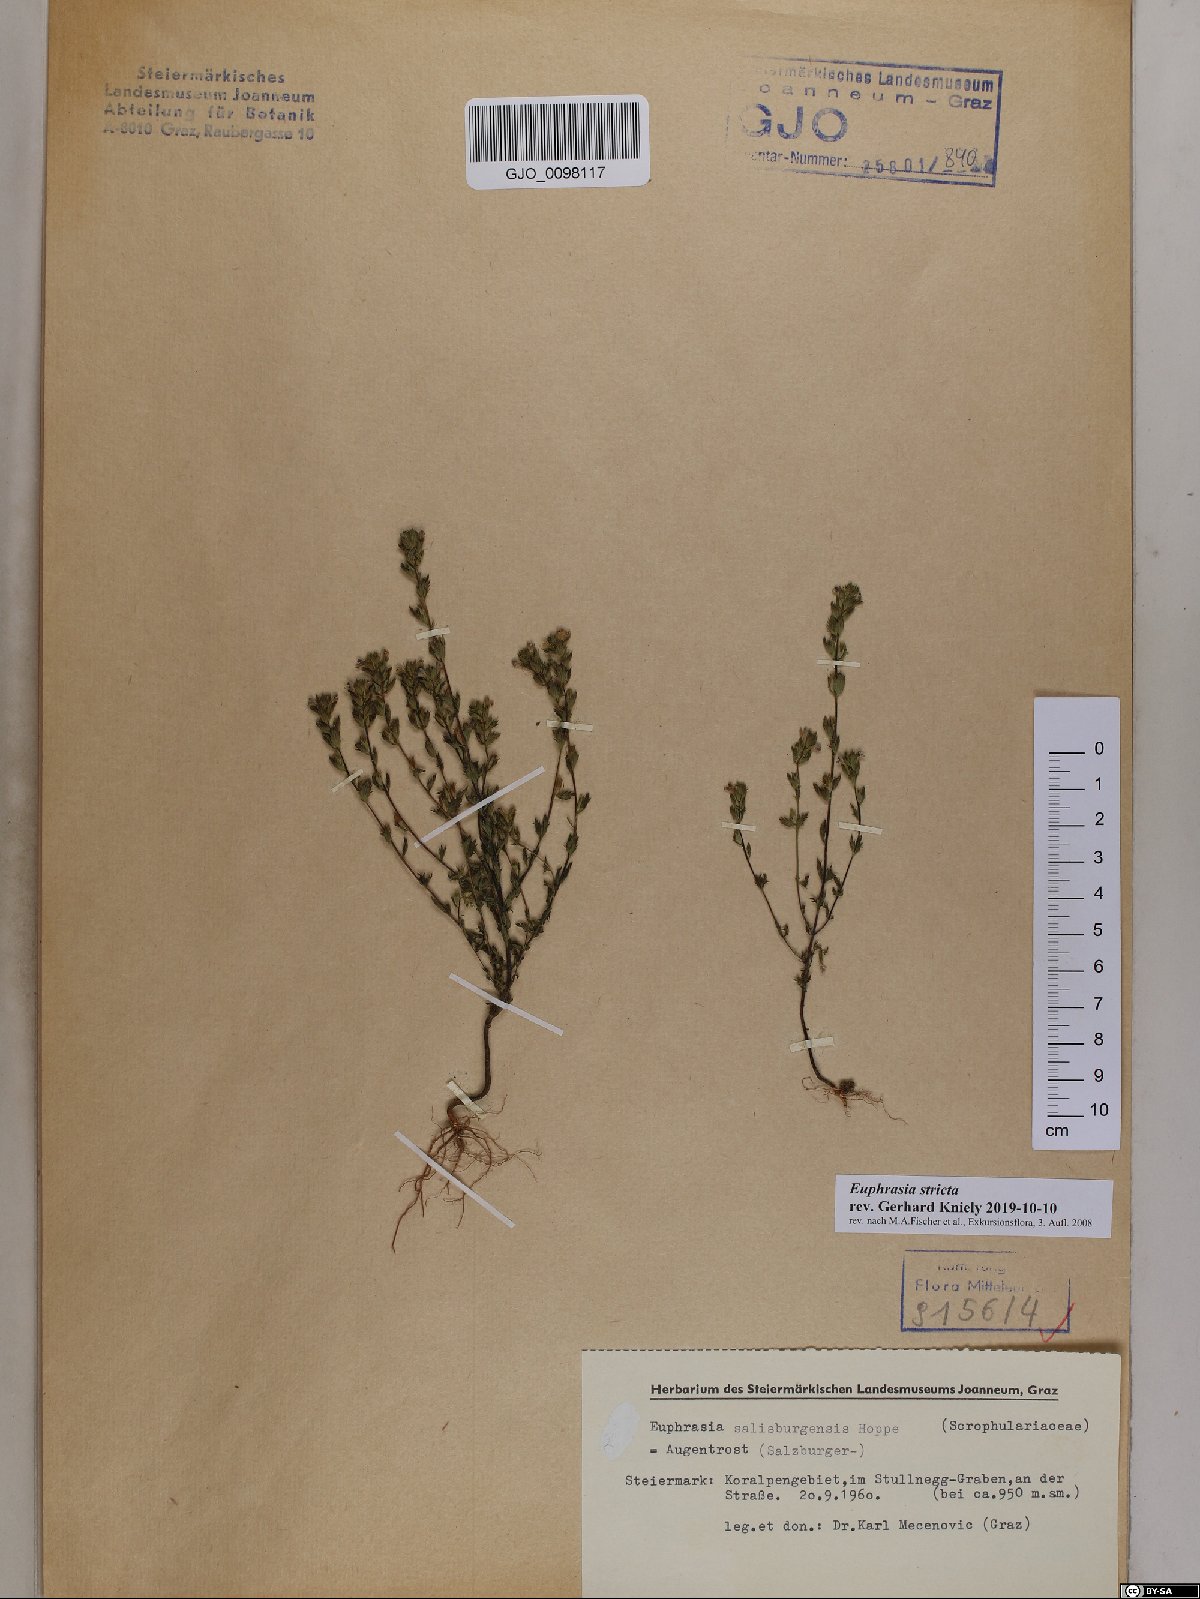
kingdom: Plantae
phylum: Tracheophyta
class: Magnoliopsida
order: Lamiales
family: Orobanchaceae
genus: Euphrasia
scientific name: Euphrasia stricta
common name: Drug eyebright
